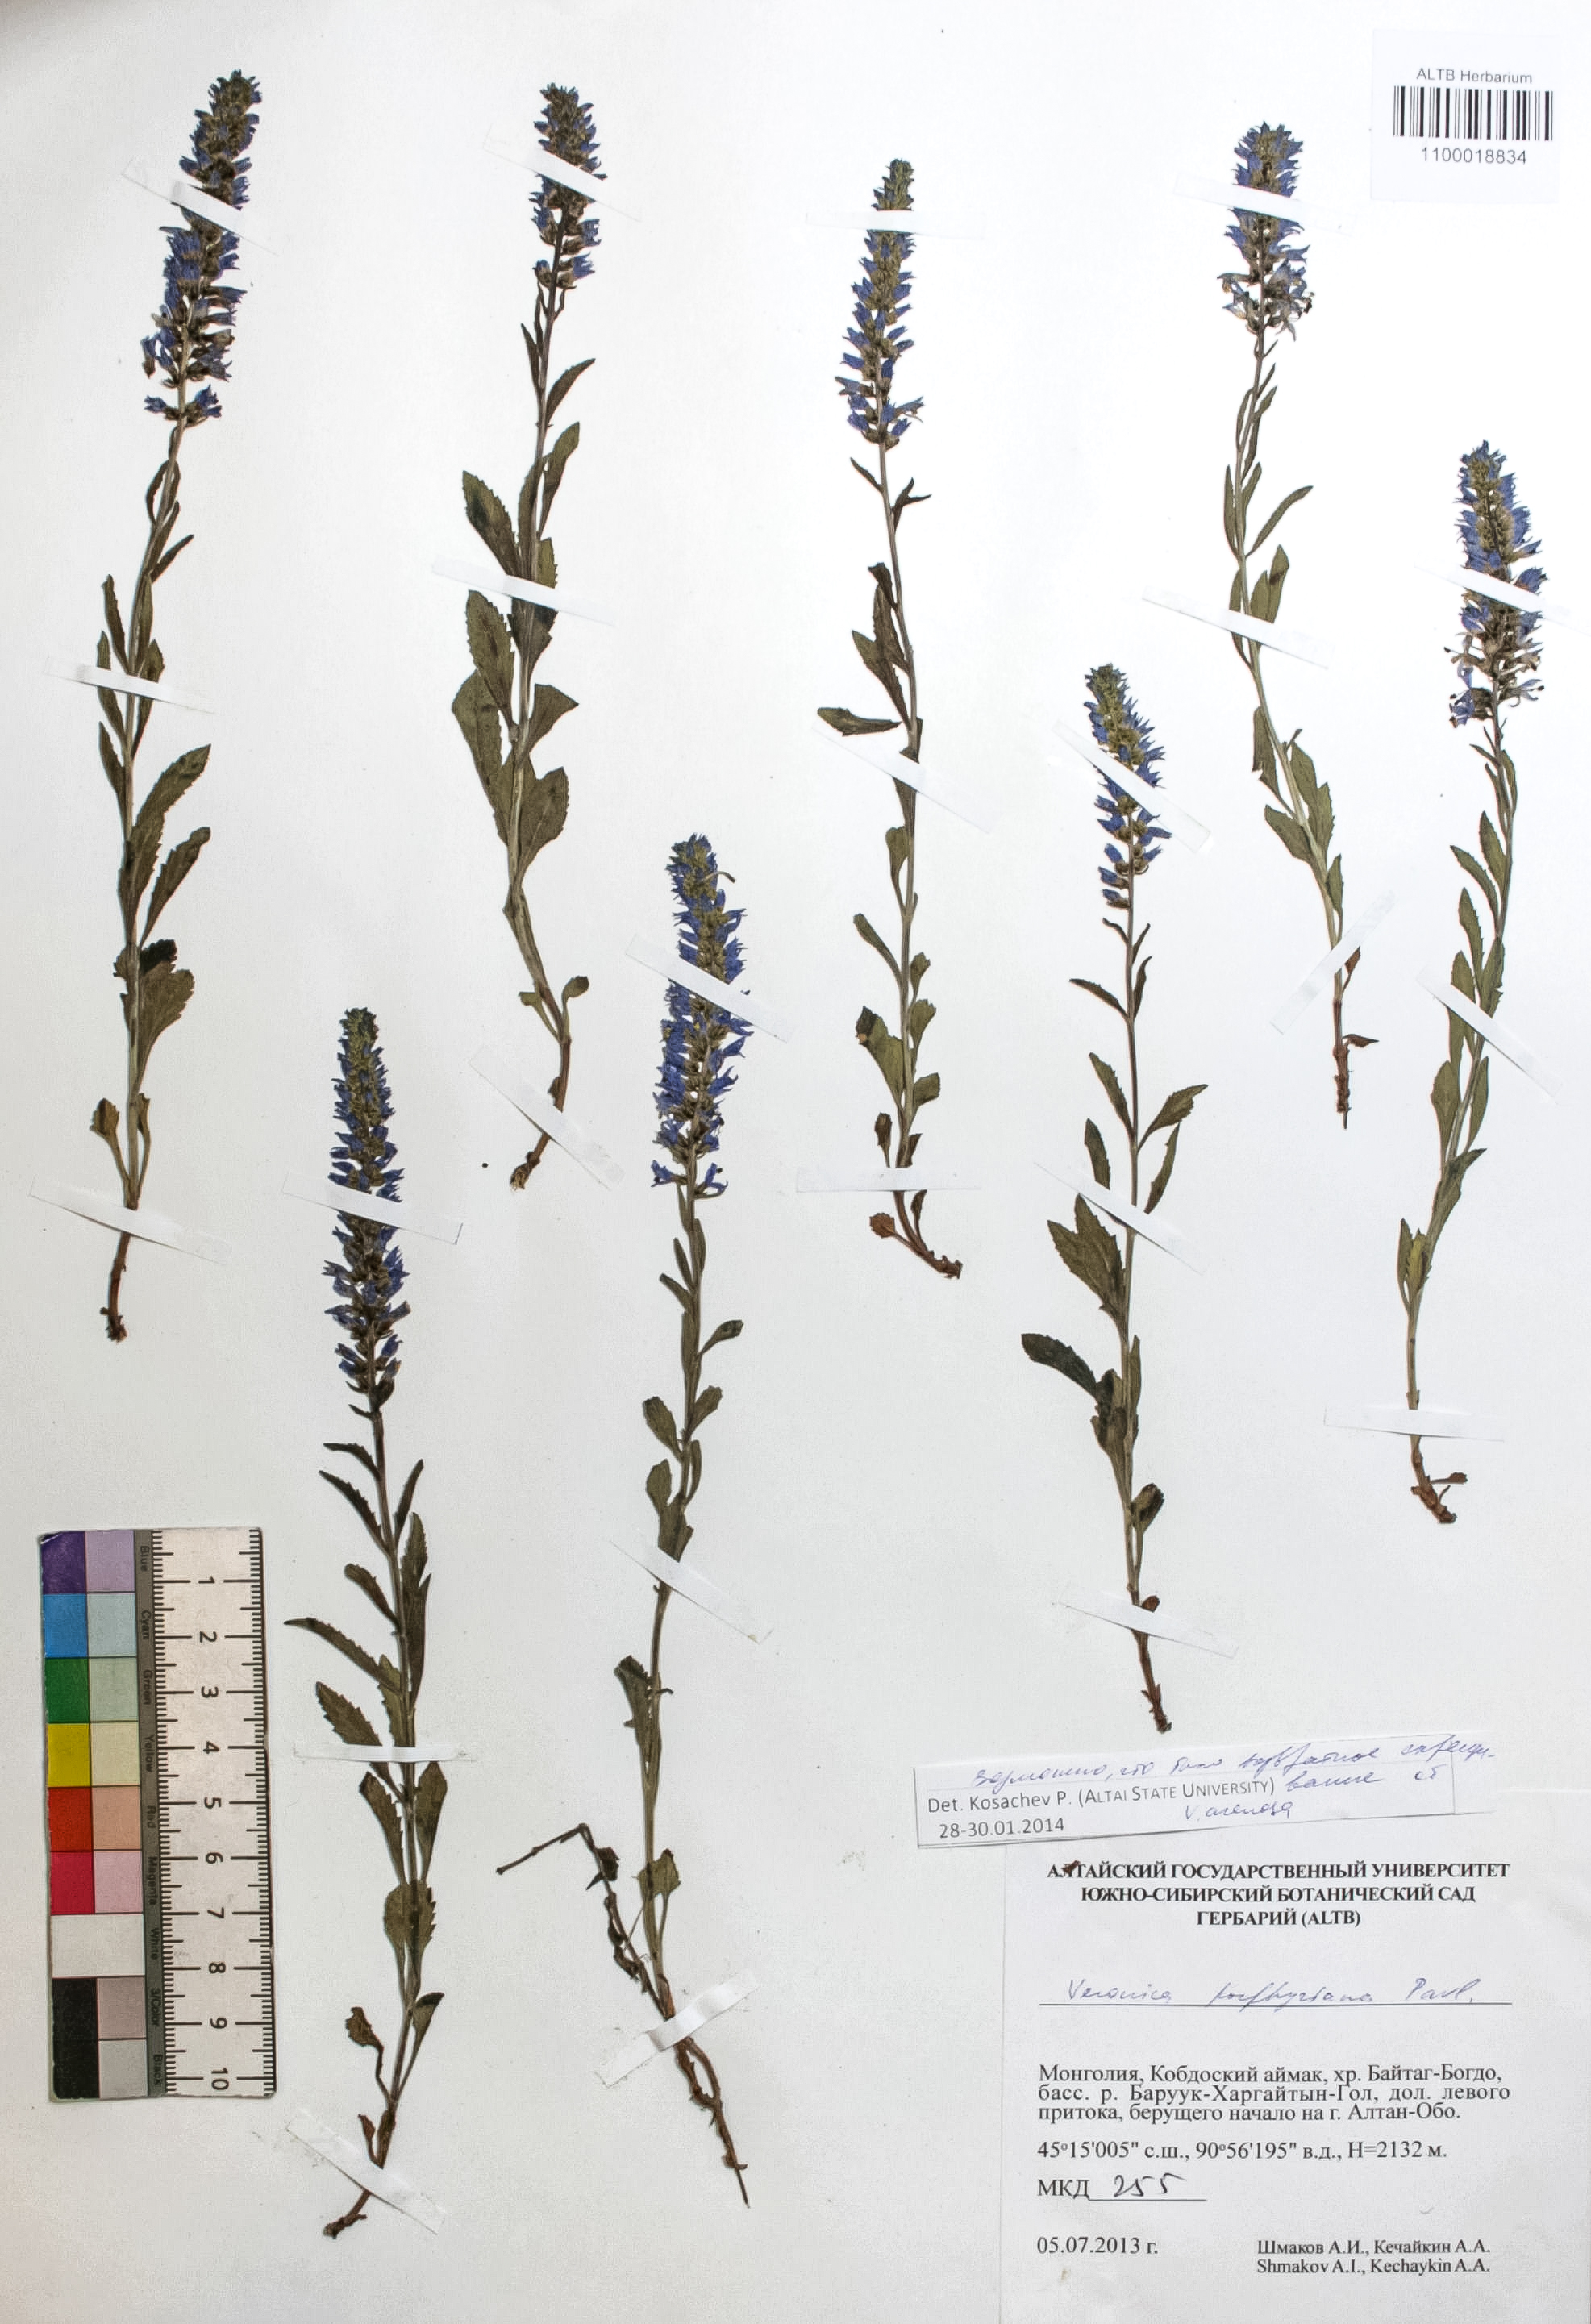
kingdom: Plantae
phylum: Tracheophyta
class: Magnoliopsida
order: Lamiales
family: Plantaginaceae
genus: Veronica
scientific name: Veronica porphyriana
